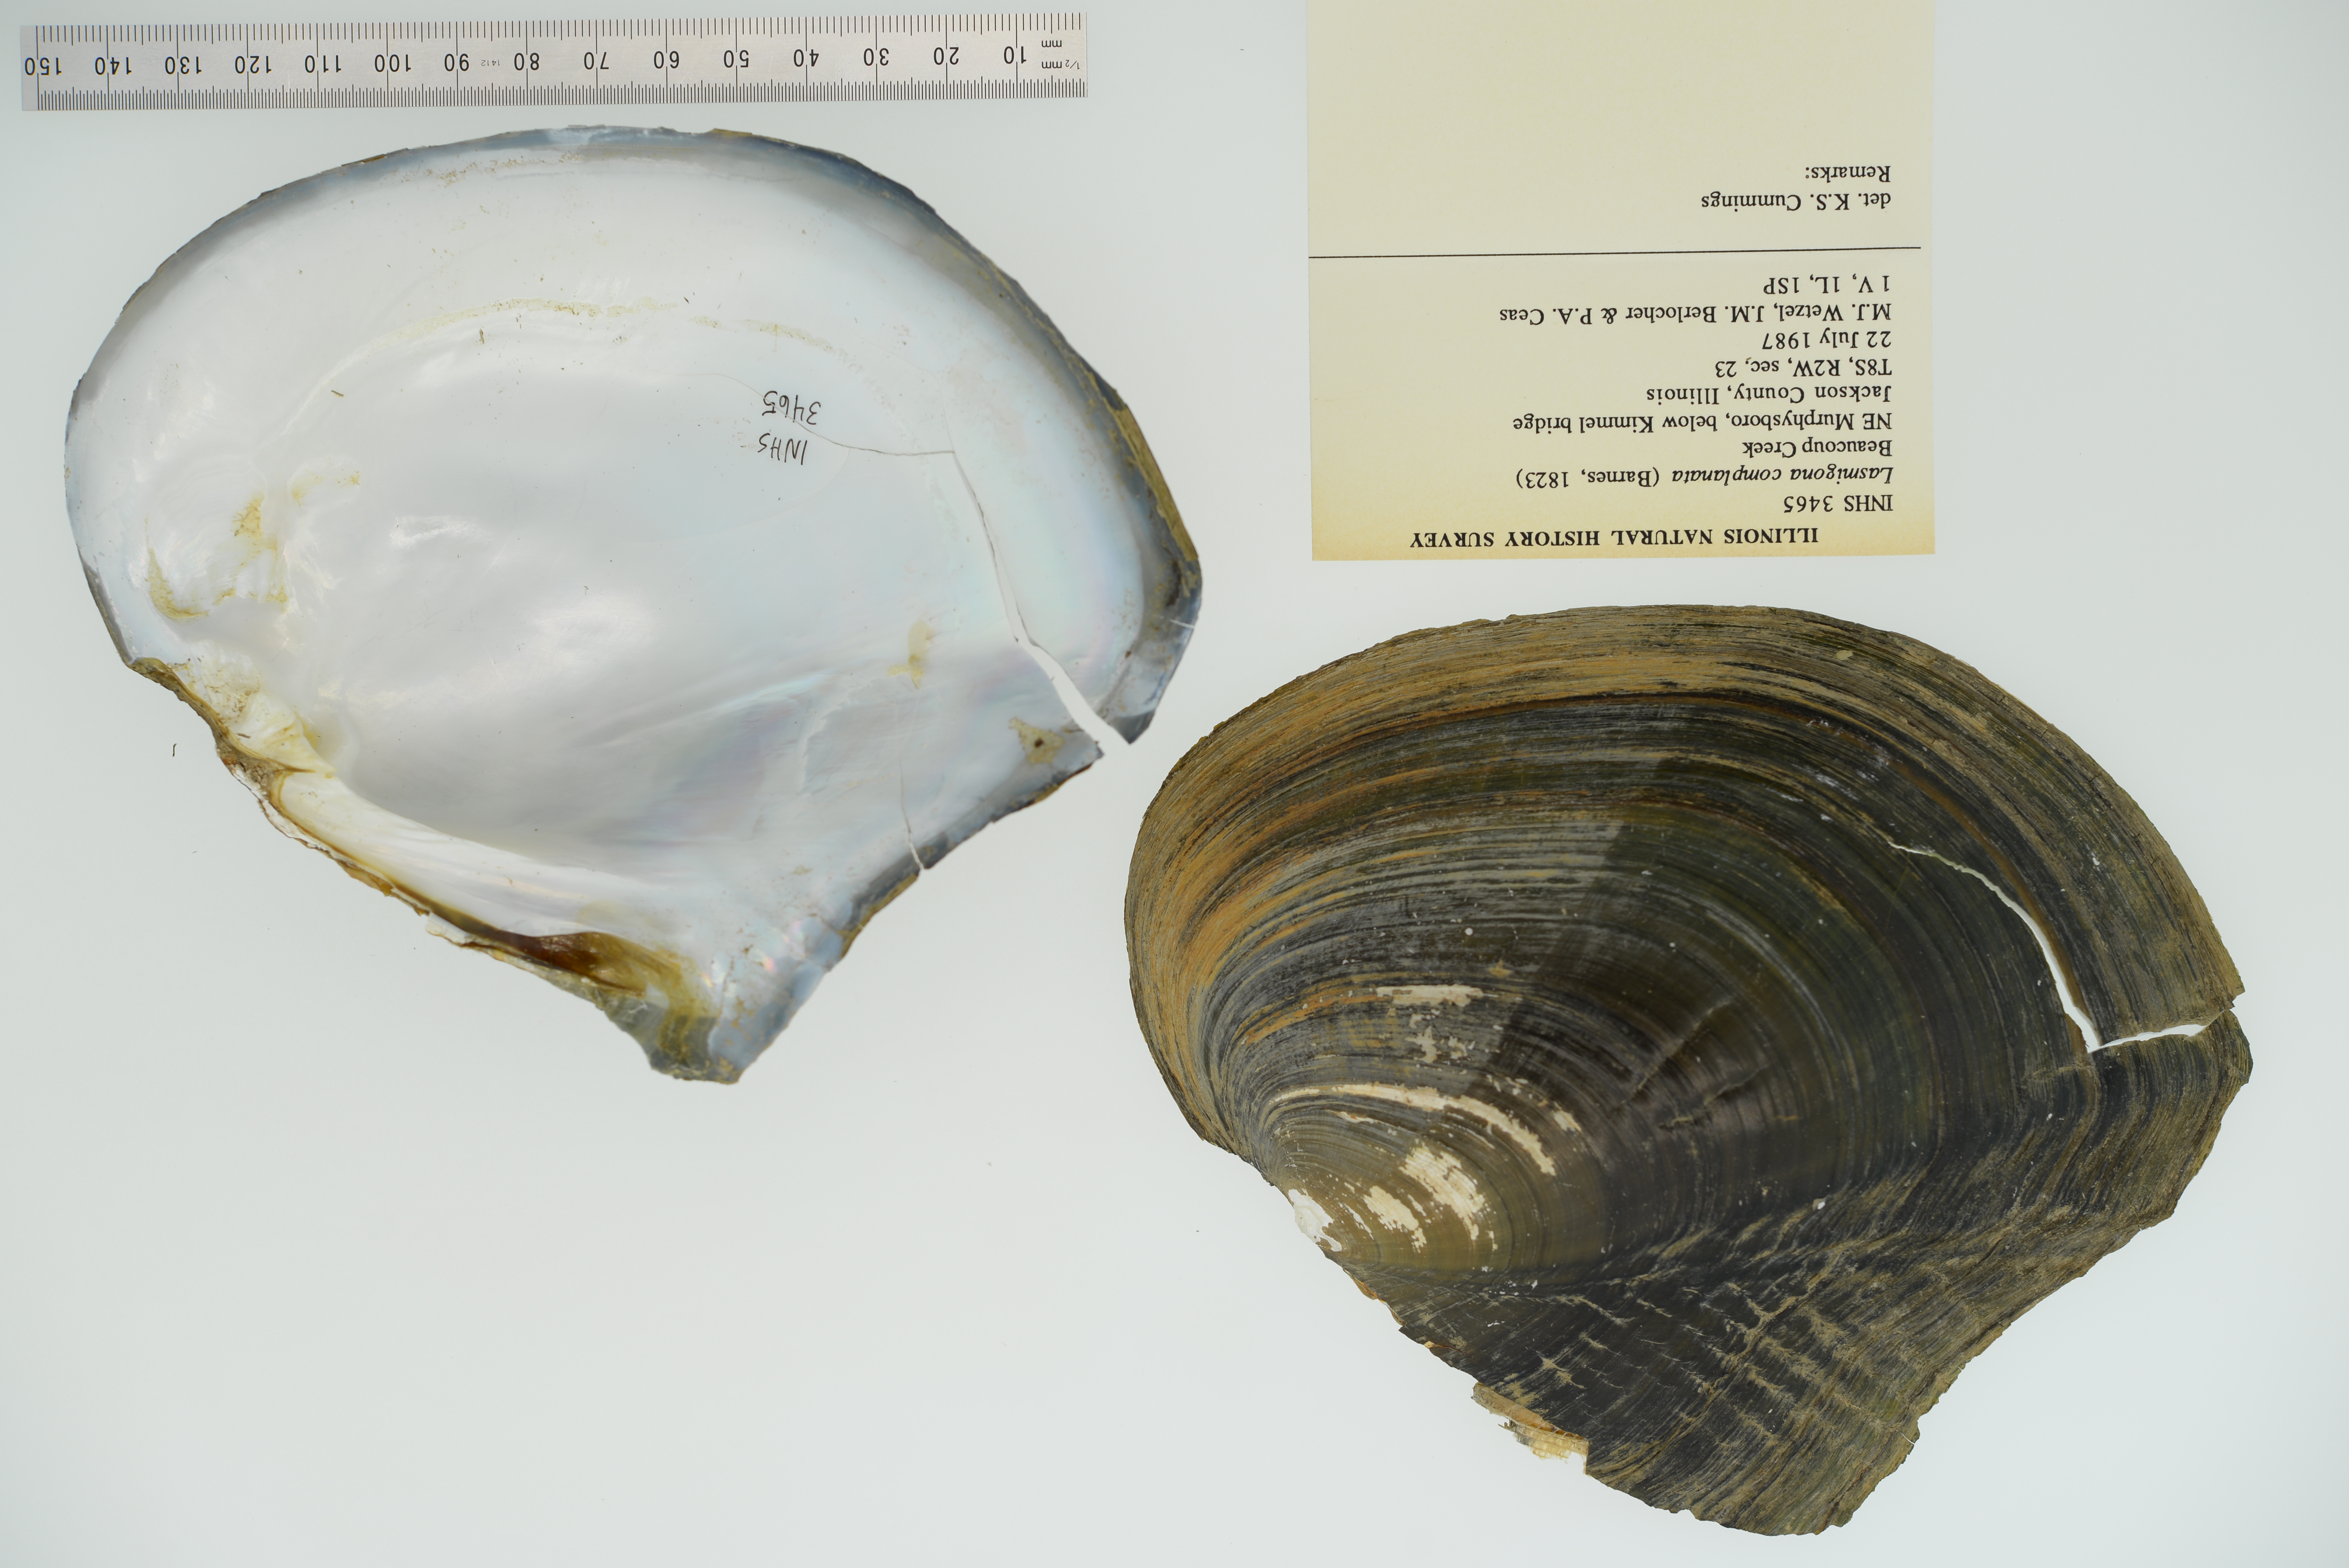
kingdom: Animalia
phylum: Mollusca
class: Bivalvia
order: Unionida
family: Unionidae
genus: Lasmigona
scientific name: Lasmigona complanata
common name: White heelsplitter
